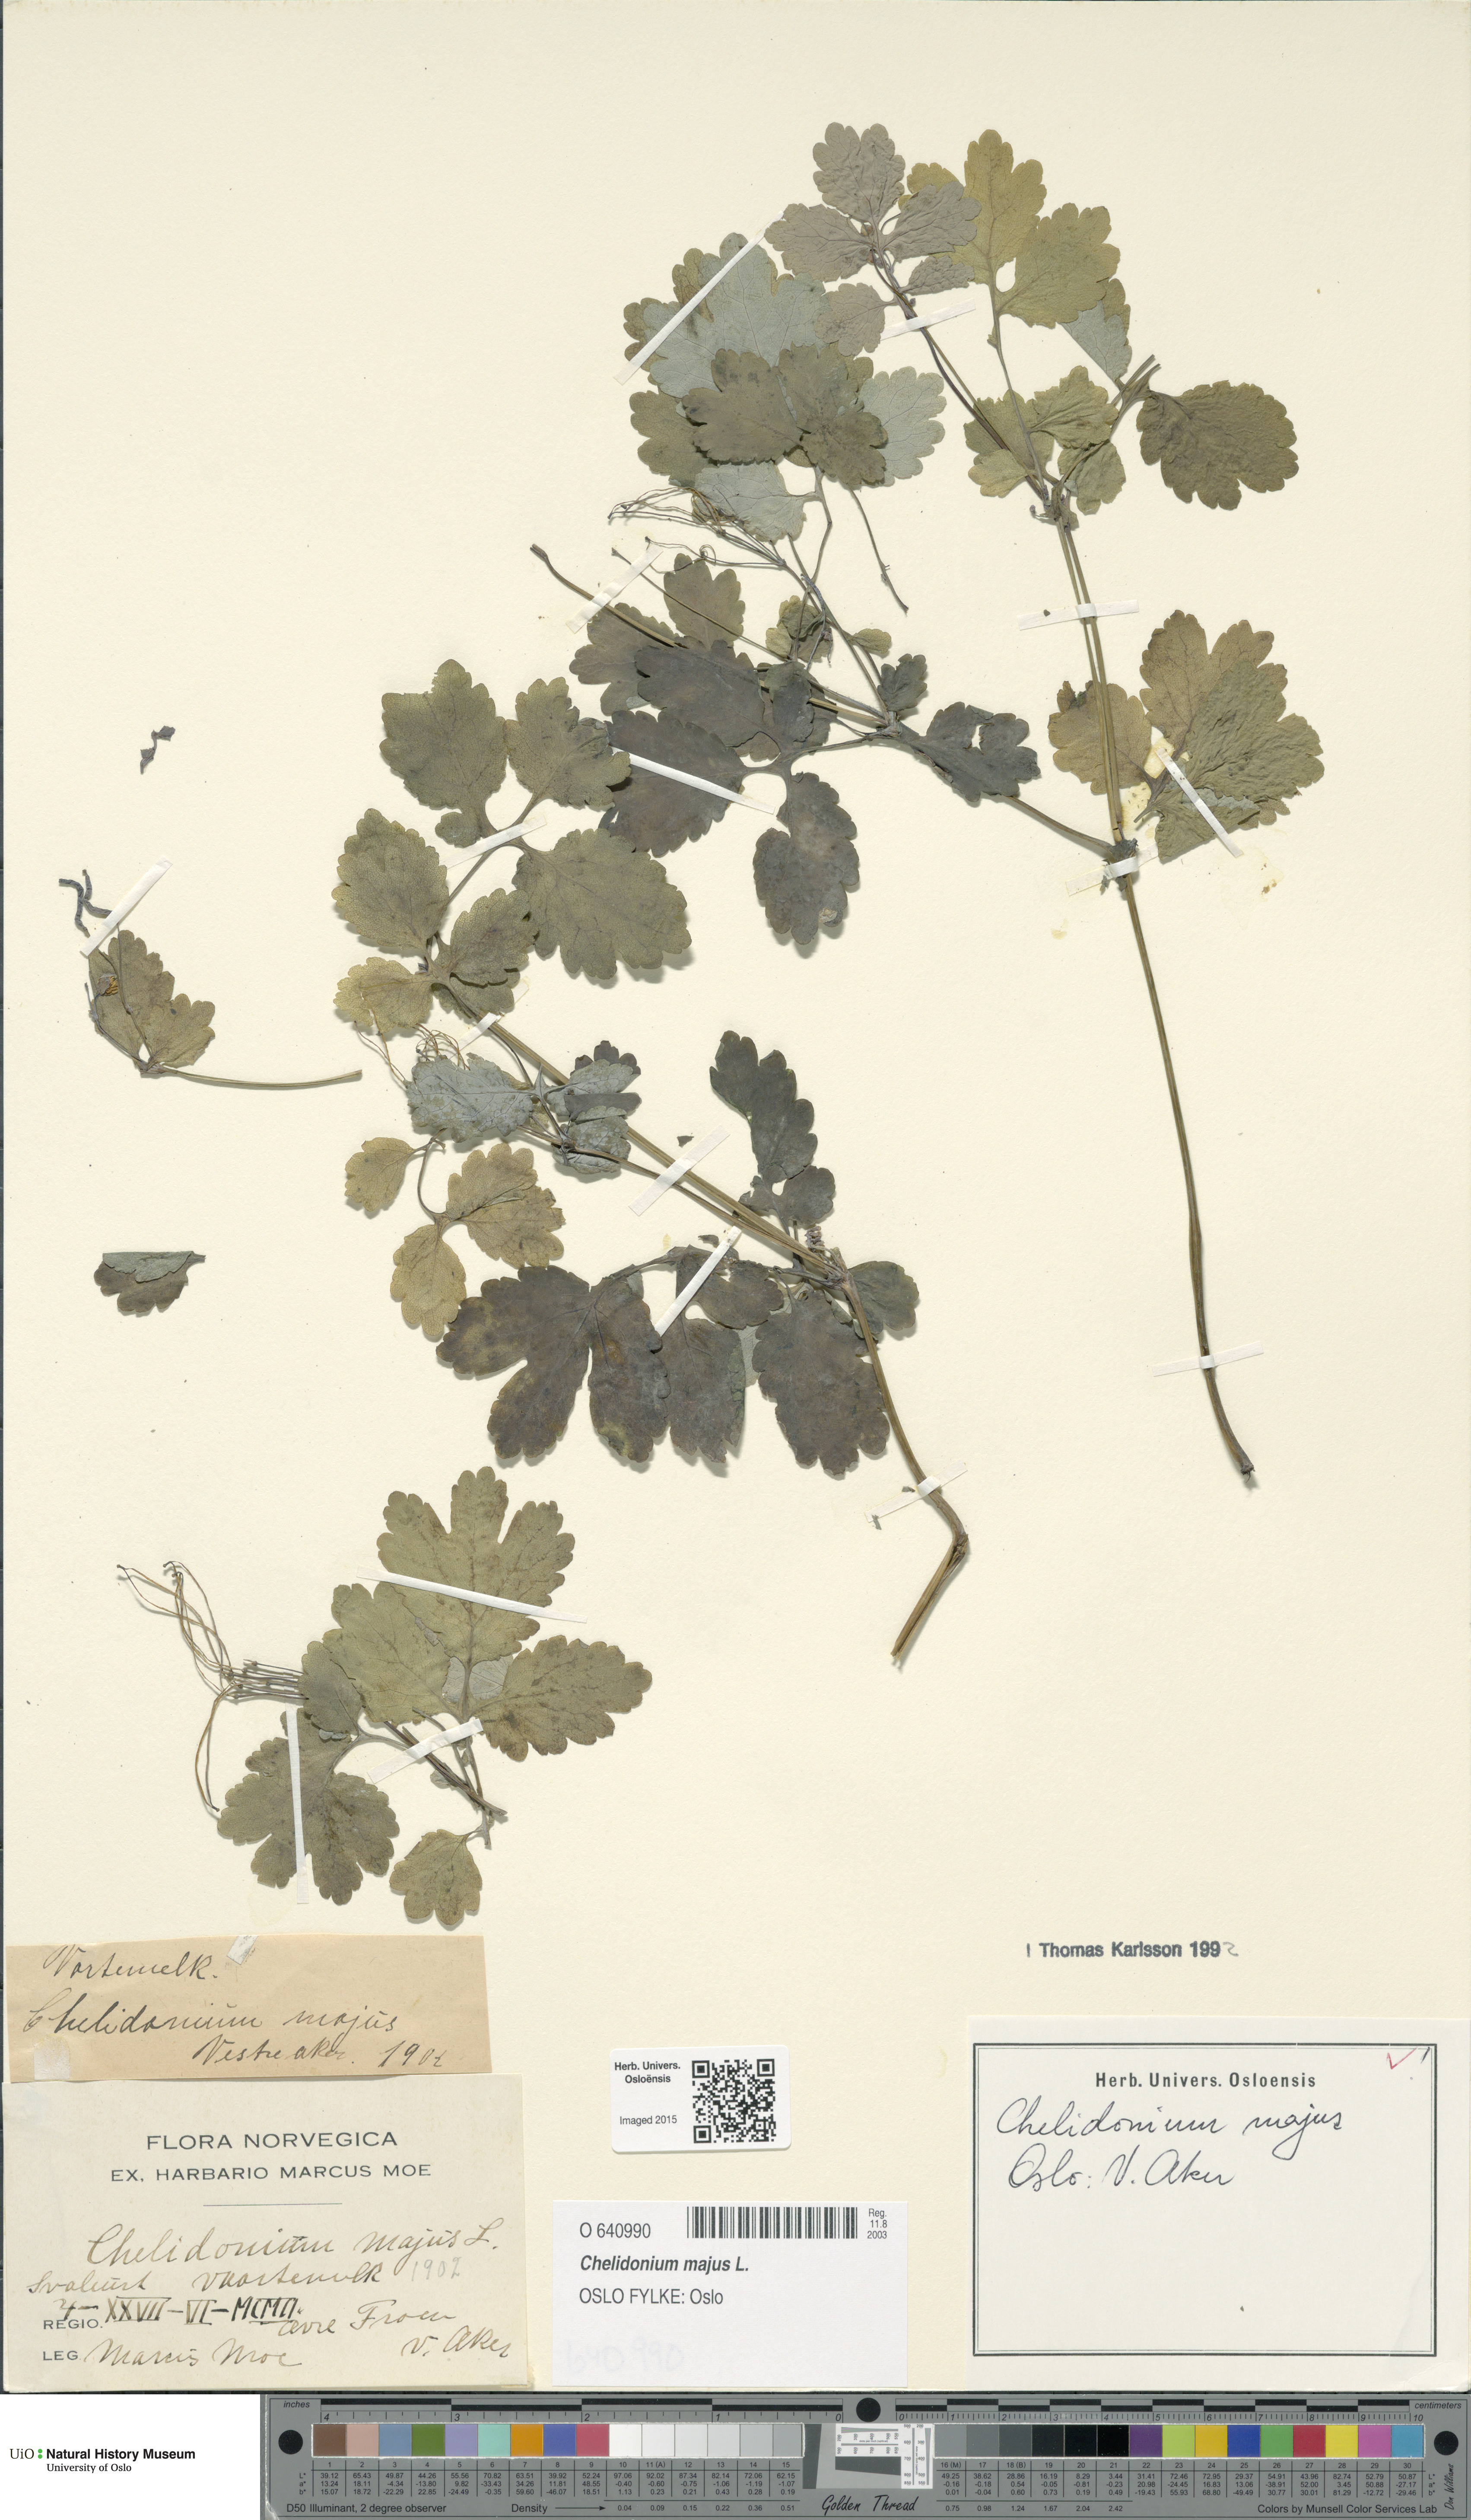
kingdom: Plantae
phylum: Tracheophyta
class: Magnoliopsida
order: Ranunculales
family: Papaveraceae
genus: Chelidonium
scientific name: Chelidonium majus
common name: Greater celandine
